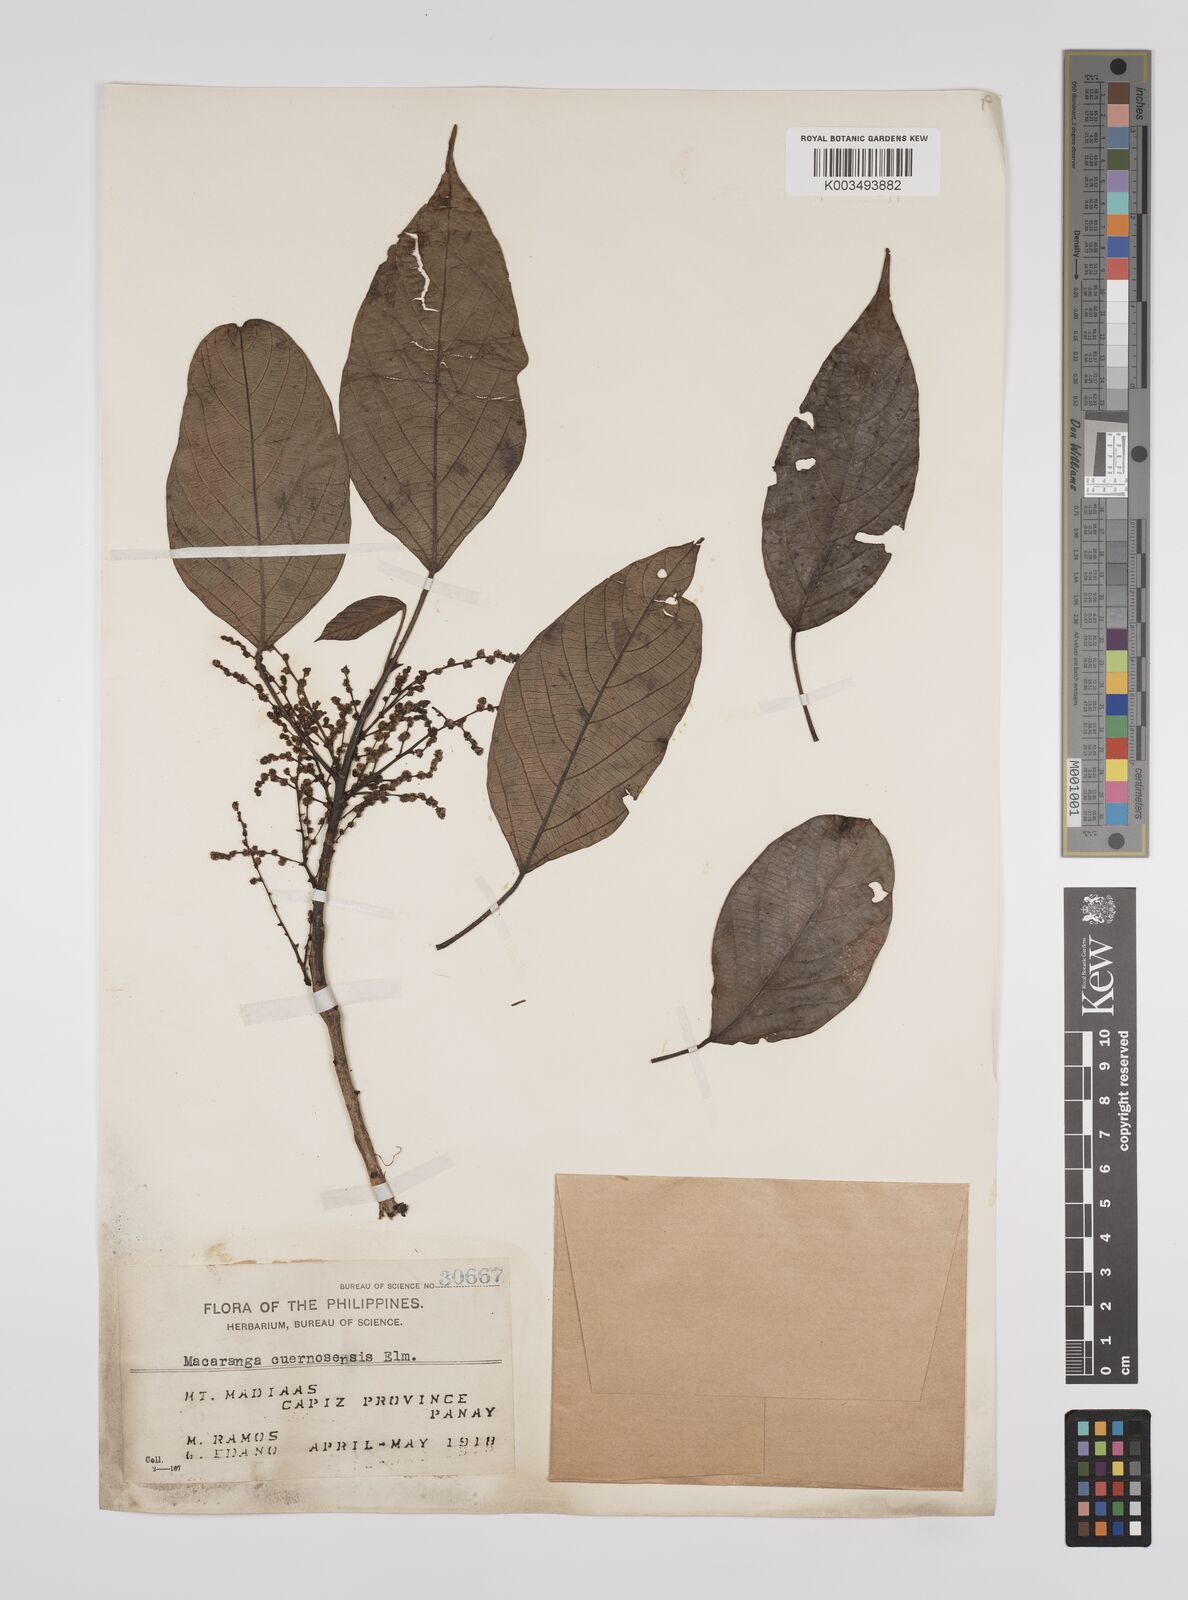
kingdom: Plantae
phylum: Tracheophyta
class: Magnoliopsida
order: Malpighiales
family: Euphorbiaceae
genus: Macaranga
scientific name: Macaranga cuernosensis
